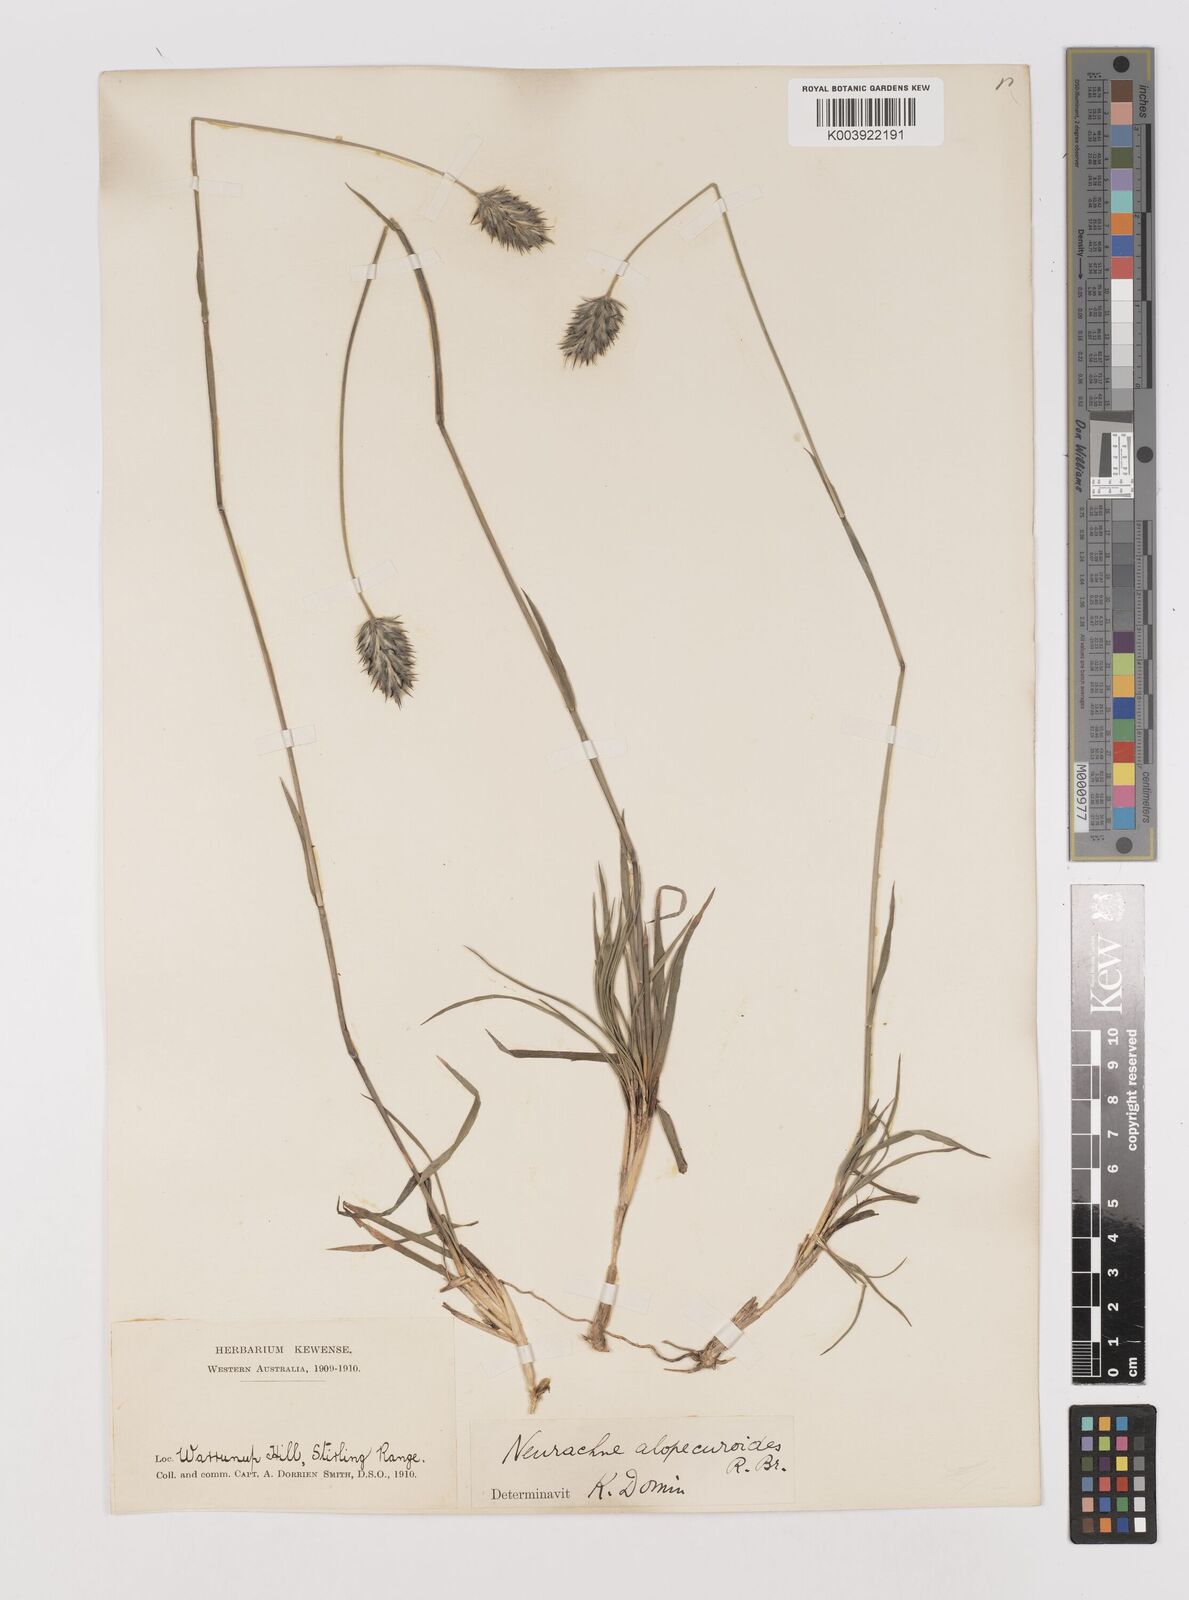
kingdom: Plantae
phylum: Tracheophyta
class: Liliopsida
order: Poales
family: Poaceae
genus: Neurachne
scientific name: Neurachne alopecuroidea
